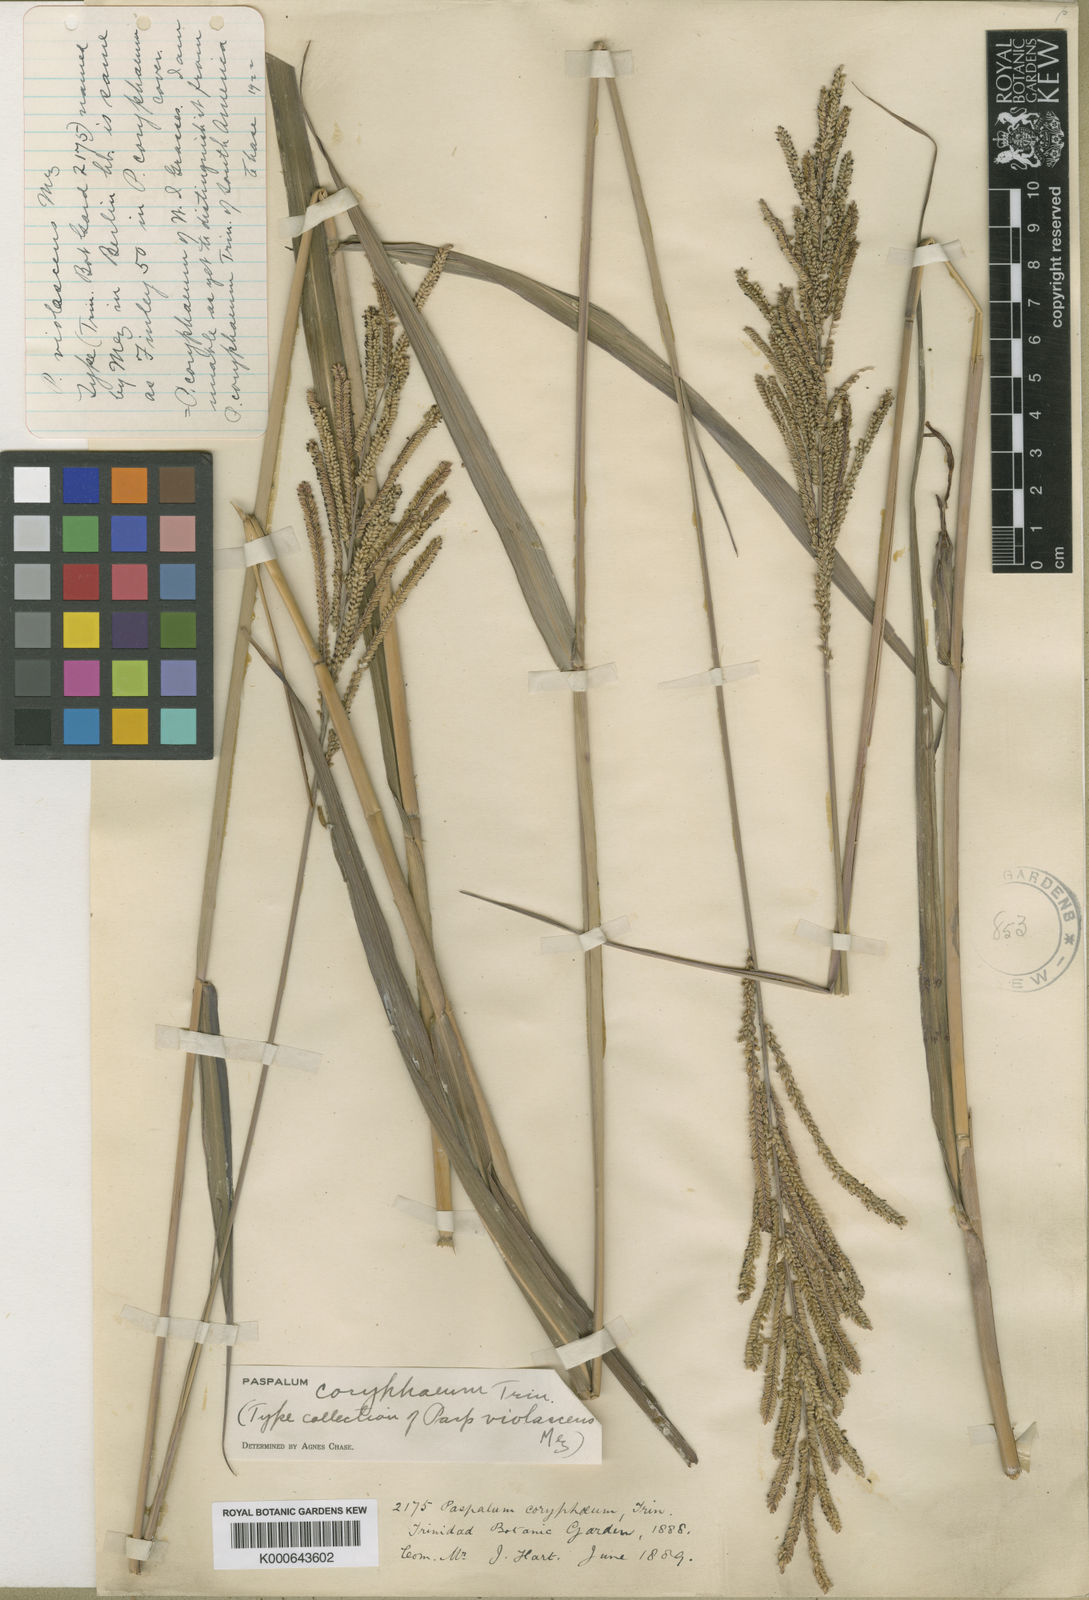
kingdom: Plantae
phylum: Tracheophyta
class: Liliopsida
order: Poales
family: Poaceae
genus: Paspalum
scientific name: Paspalum coryphaeum
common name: Emperor crowngrass
